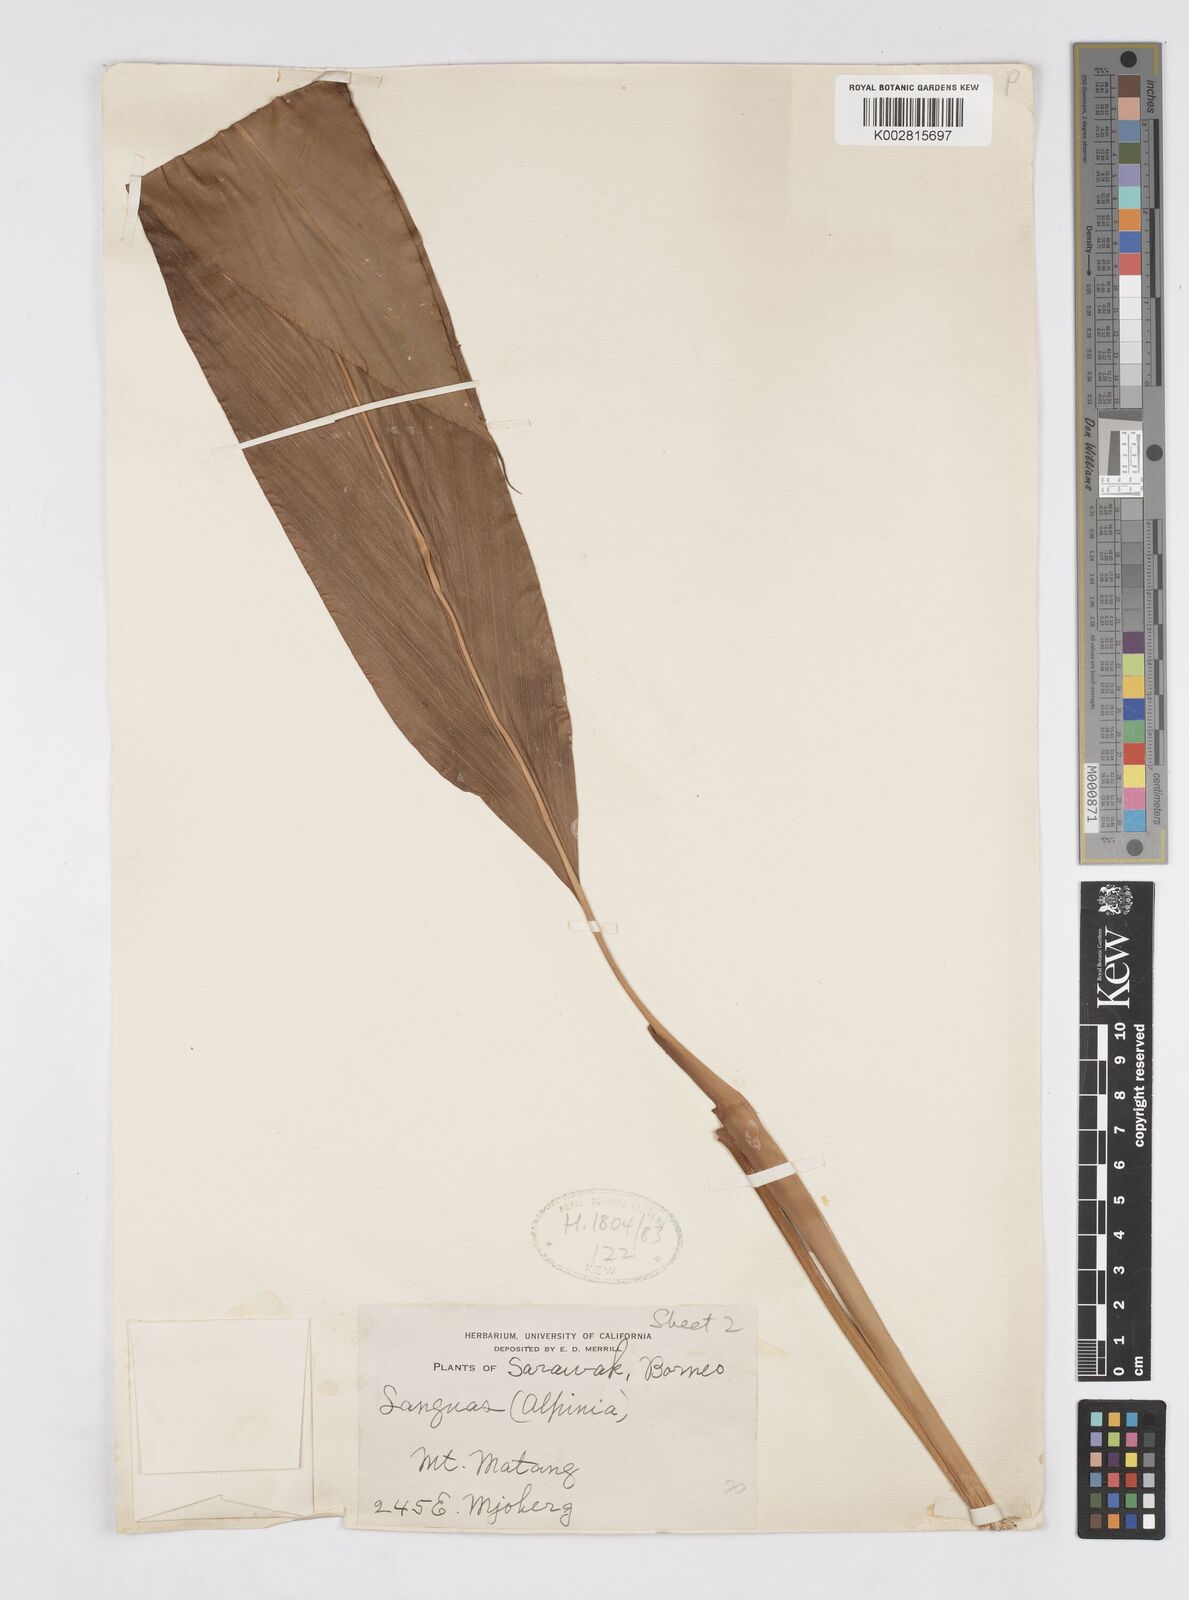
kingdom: Plantae
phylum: Tracheophyta
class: Liliopsida
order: Zingiberales
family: Zingiberaceae
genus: Alpinia
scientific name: Alpinia glabra
